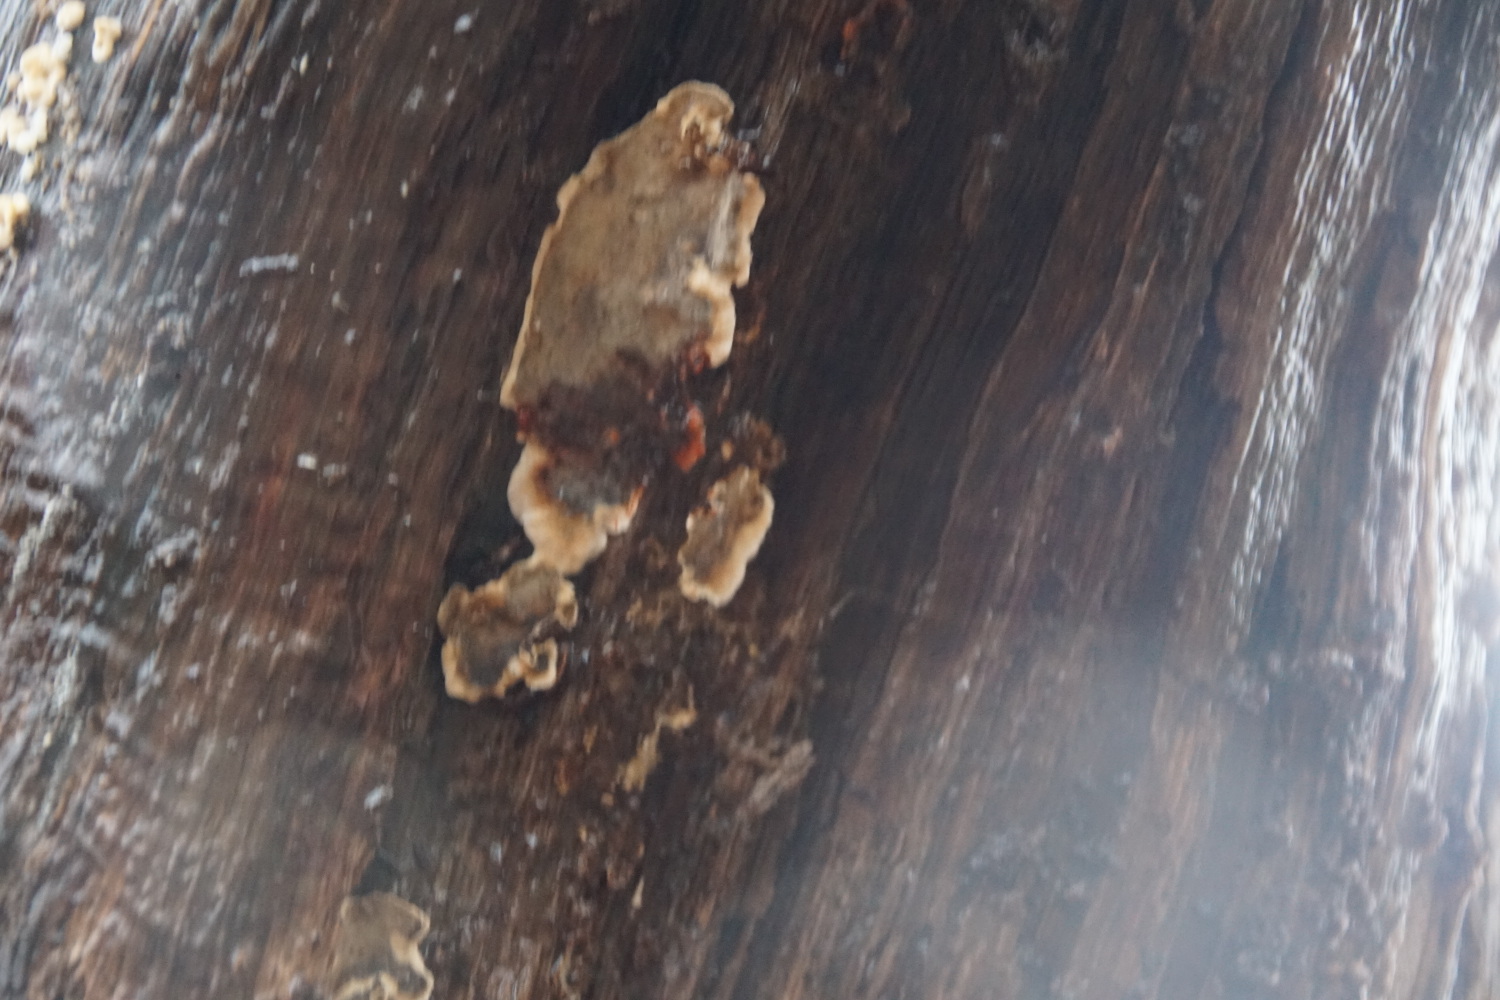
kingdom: Fungi
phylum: Basidiomycota
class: Agaricomycetes
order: Russulales
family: Stereaceae
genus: Stereum
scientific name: Stereum gausapatum
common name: tynd lædersvamp
